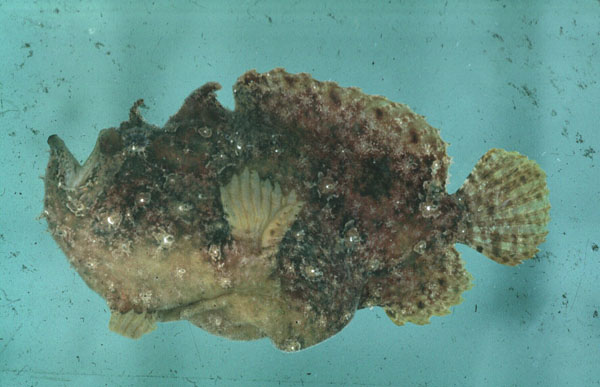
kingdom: Animalia
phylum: Chordata
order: Lophiiformes
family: Antennariidae
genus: Antennatus
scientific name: Antennatus coccineus
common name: Scarlet frogfish
